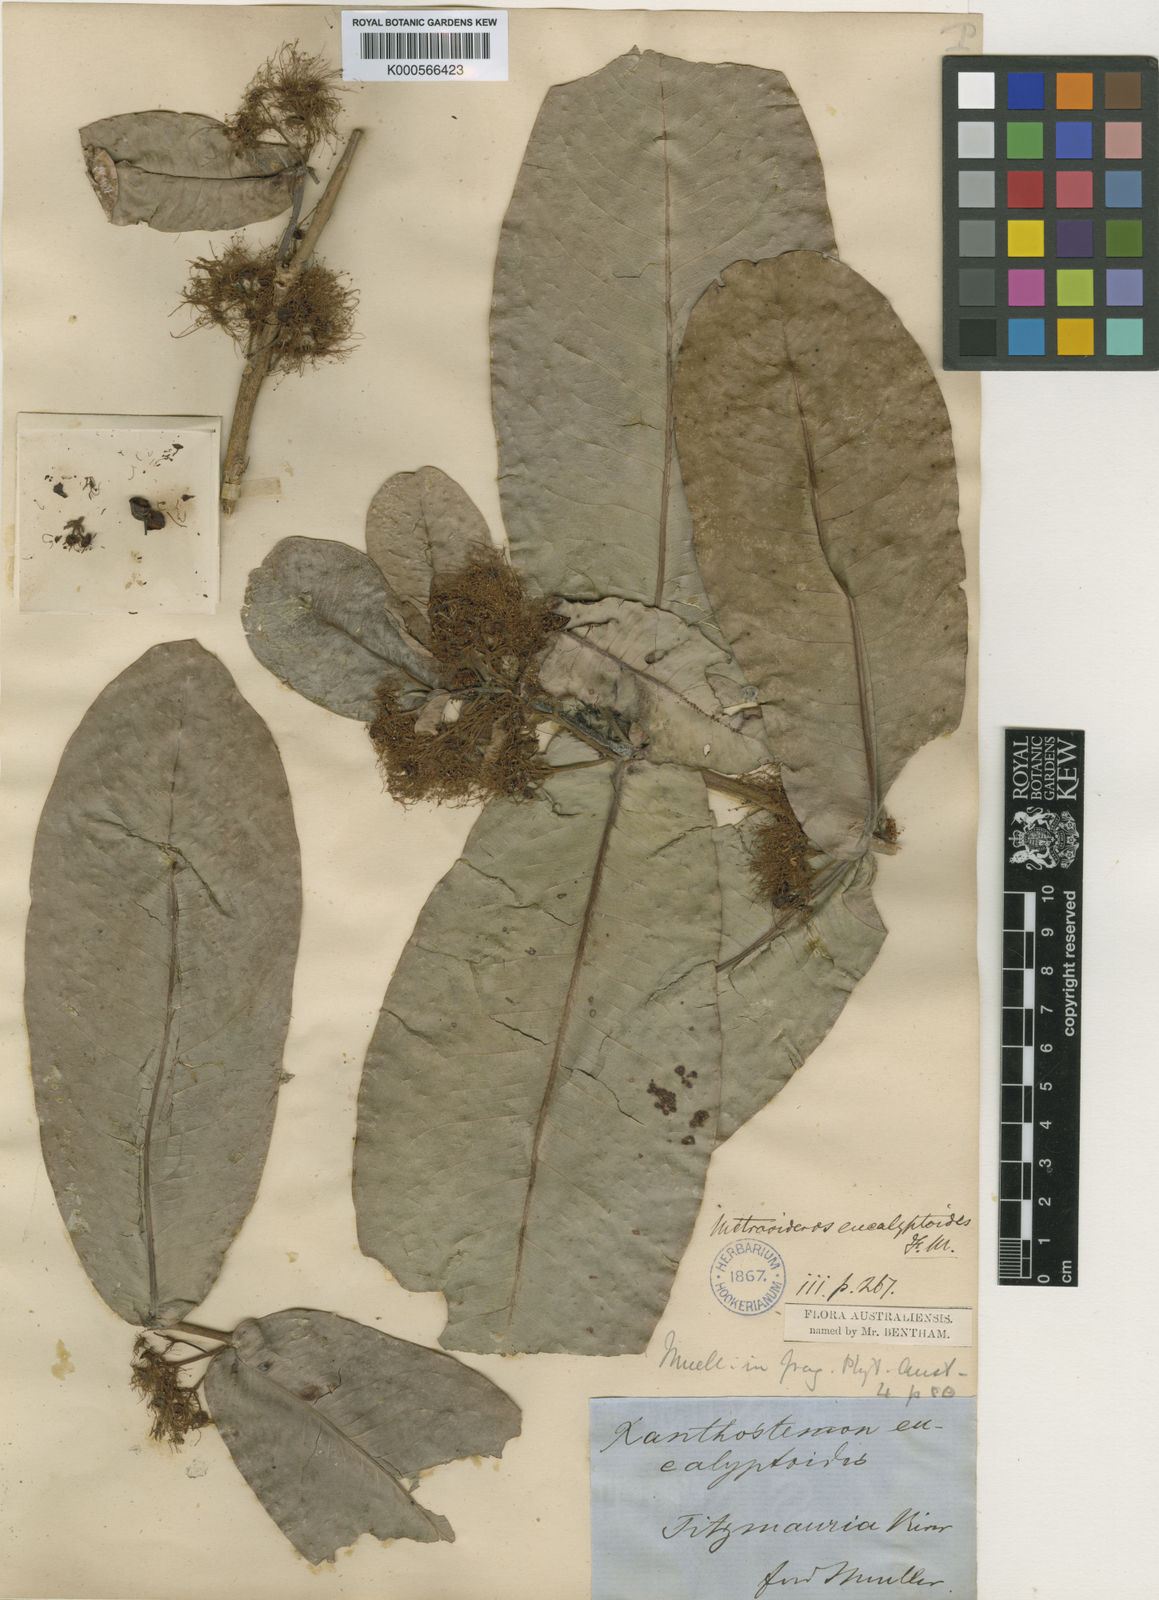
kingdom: Plantae
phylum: Tracheophyta
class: Magnoliopsida
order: Myrtales
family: Myrtaceae
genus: Xanthostemon
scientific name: Xanthostemon eucalyptoides
